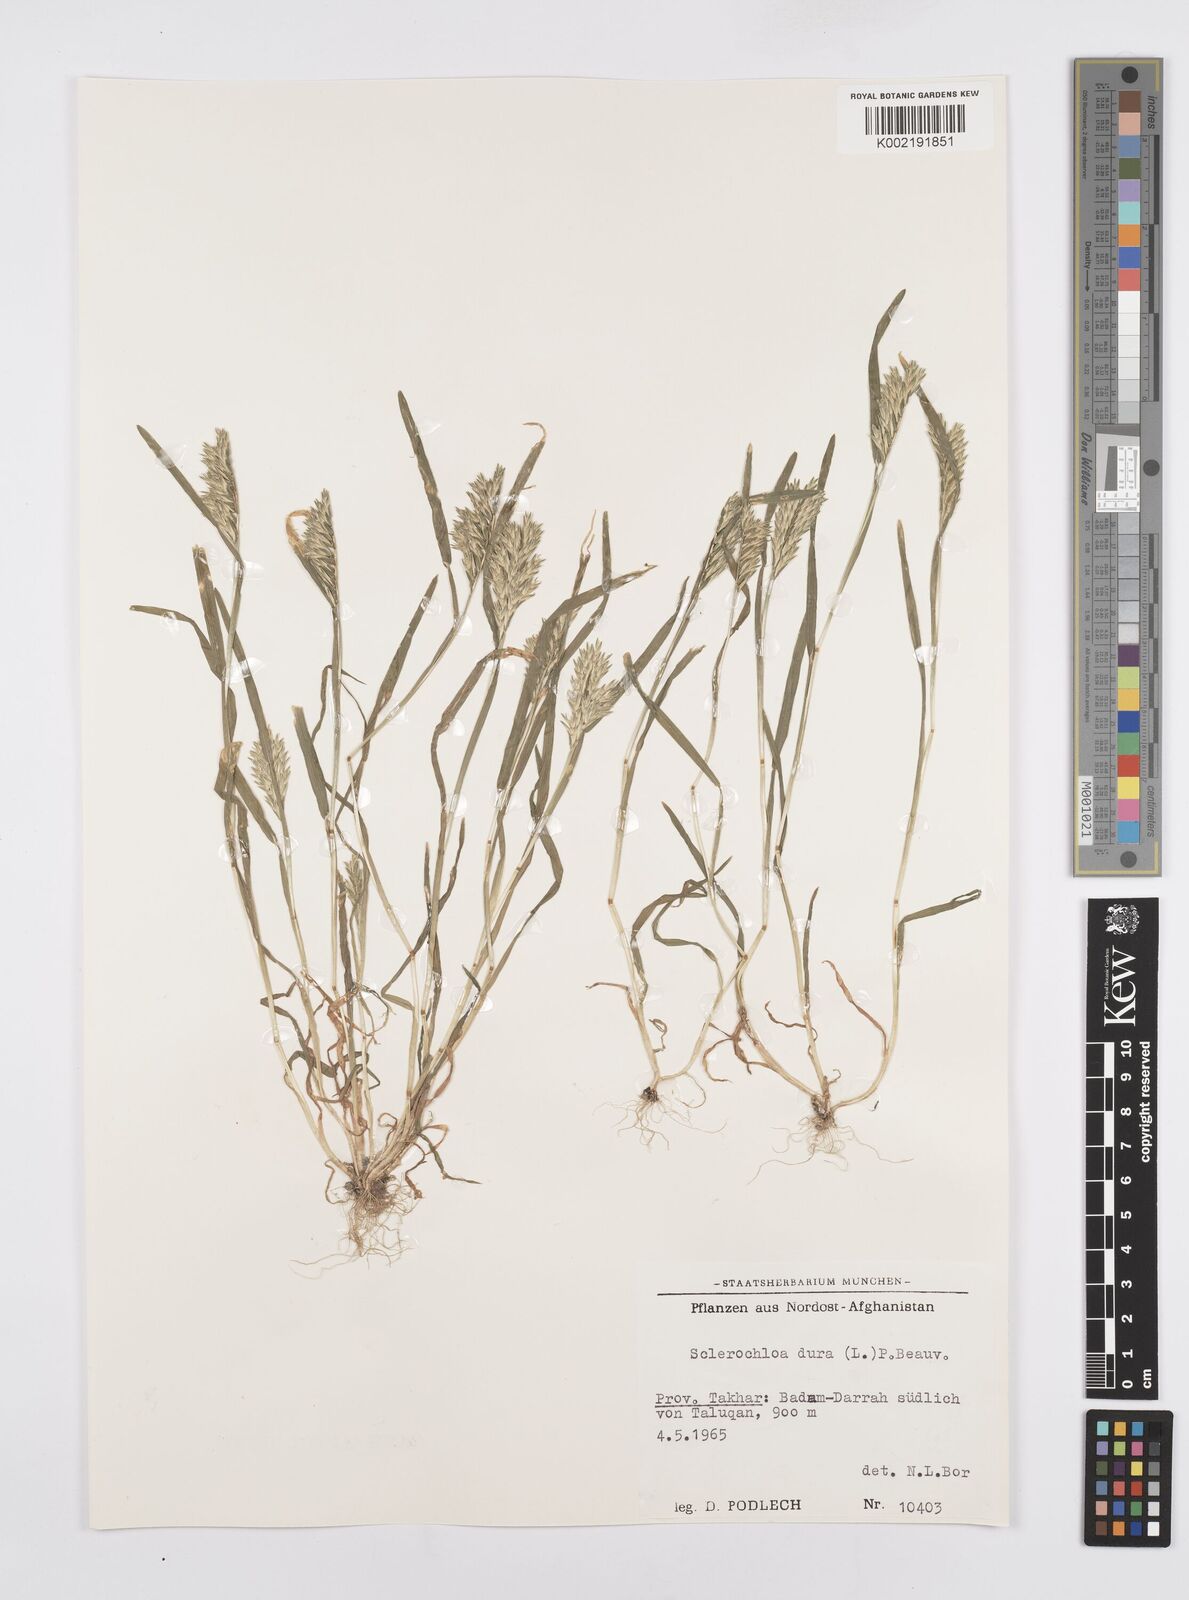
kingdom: Plantae
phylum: Tracheophyta
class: Liliopsida
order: Poales
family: Poaceae
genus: Sclerochloa
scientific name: Sclerochloa dura
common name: Common hardgrass
